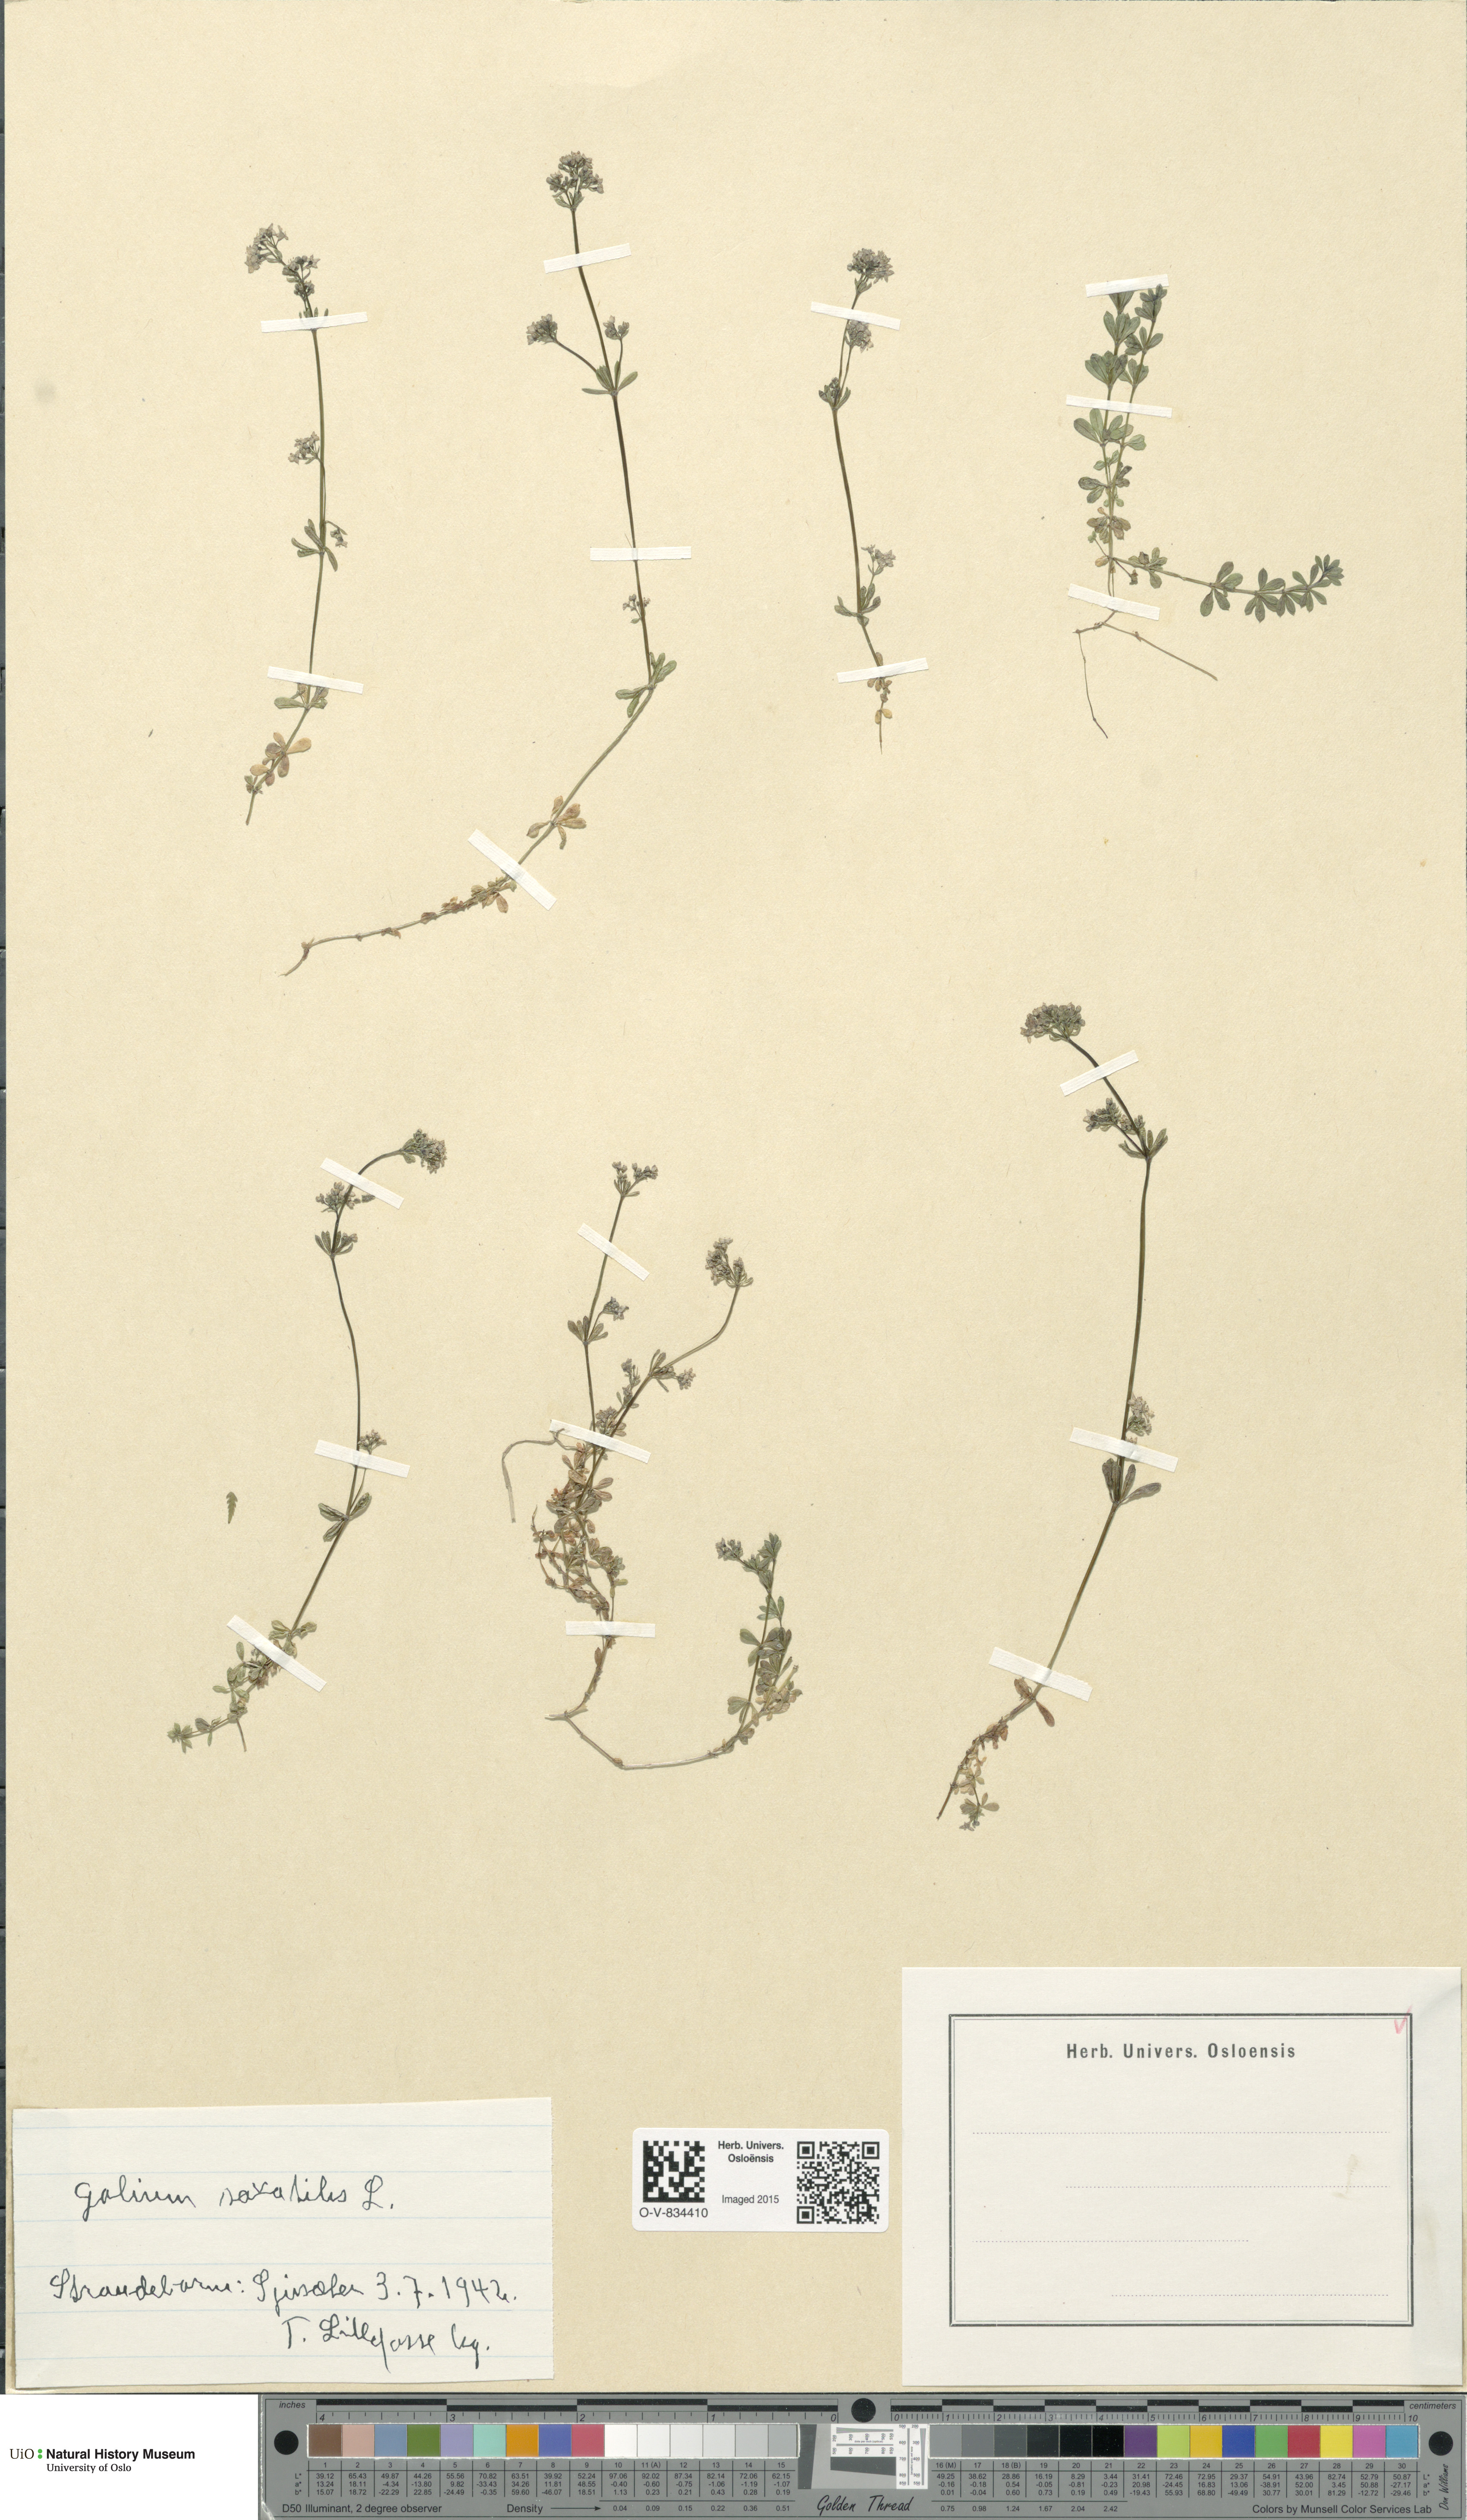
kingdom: Plantae
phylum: Tracheophyta
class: Magnoliopsida
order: Gentianales
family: Rubiaceae
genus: Galium
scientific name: Galium saxatile
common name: Heath bedstraw
